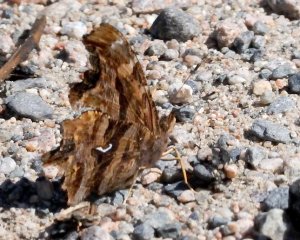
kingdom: Animalia
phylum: Arthropoda
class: Insecta
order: Lepidoptera
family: Nymphalidae
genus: Polygonia
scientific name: Polygonia satyrus
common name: Satyr Comma
